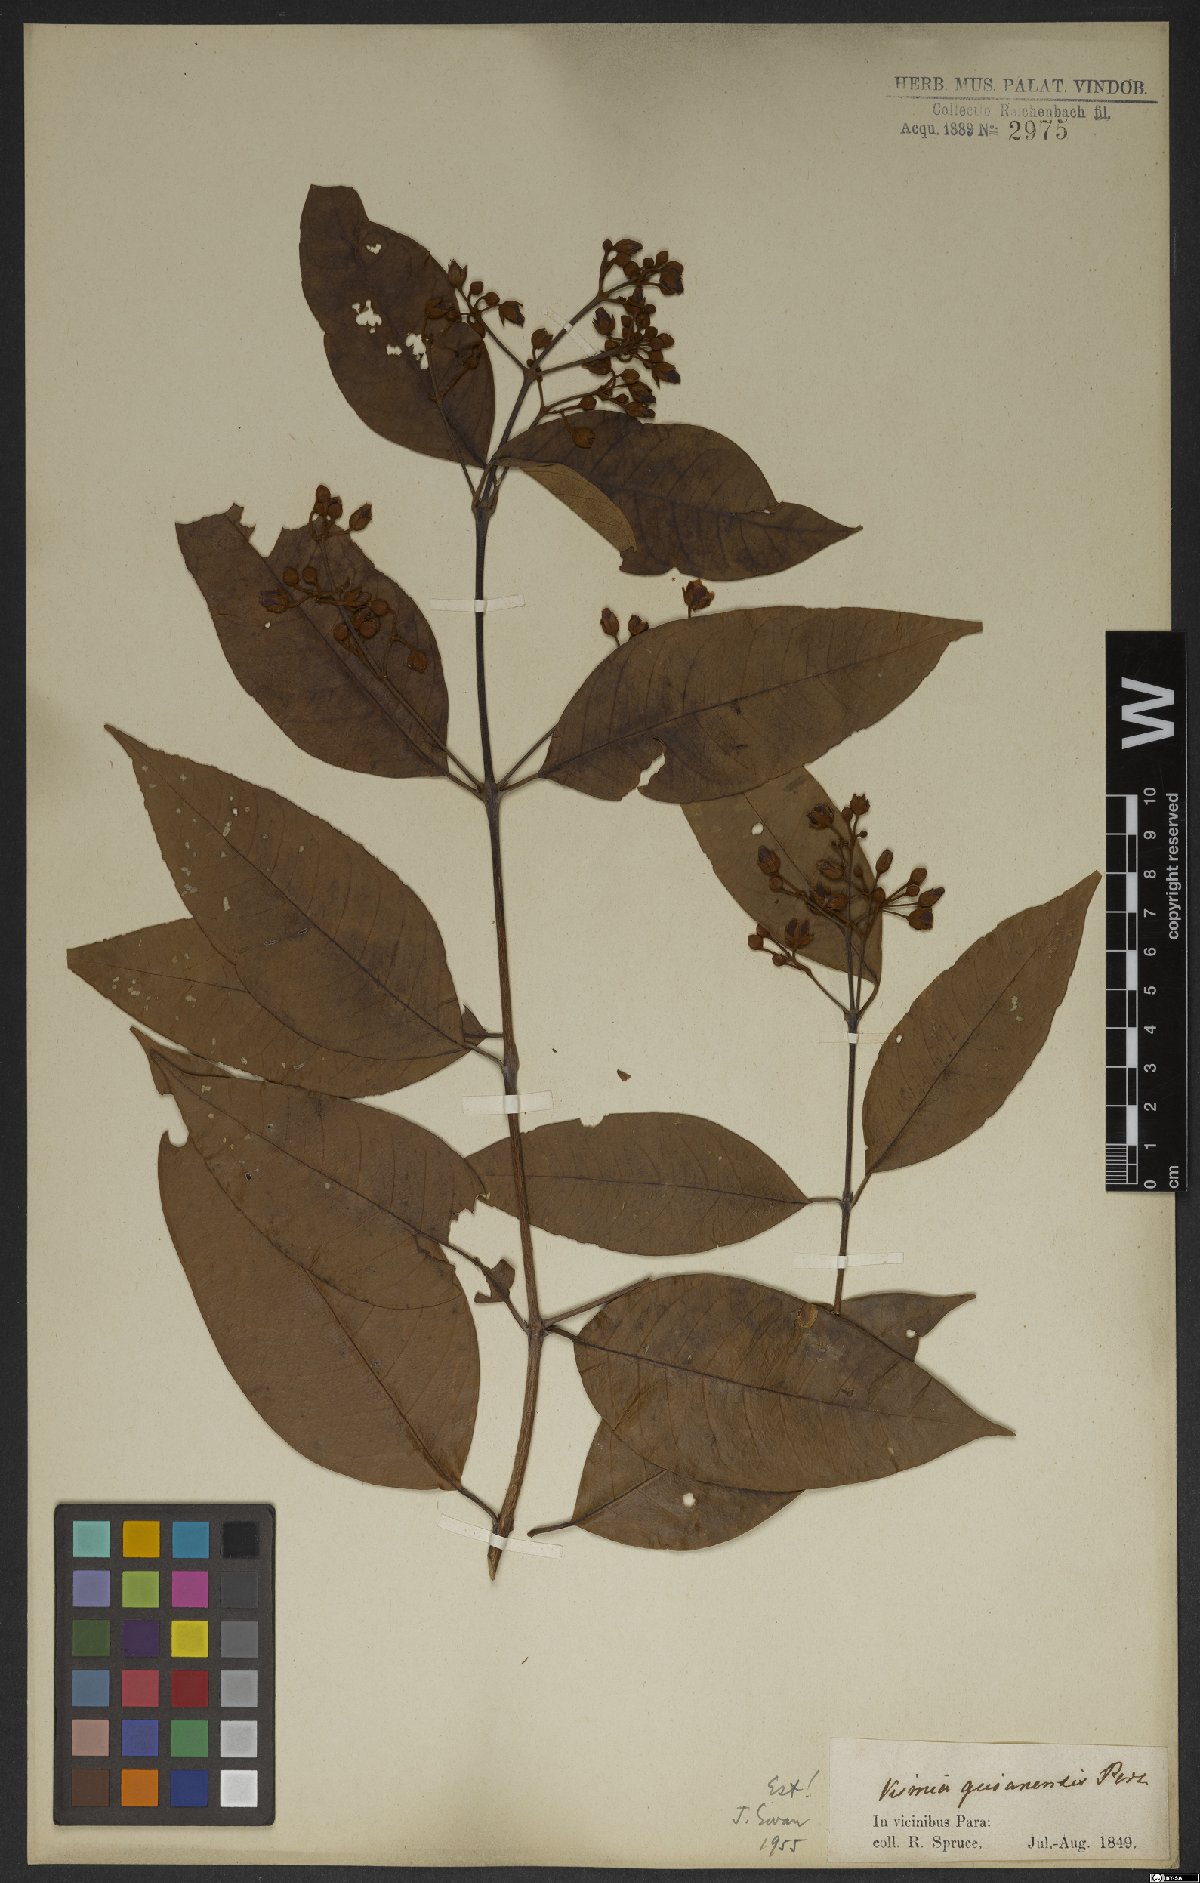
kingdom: Plantae
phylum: Tracheophyta
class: Magnoliopsida
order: Malpighiales
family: Hypericaceae
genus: Vismia
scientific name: Vismia guianensis
